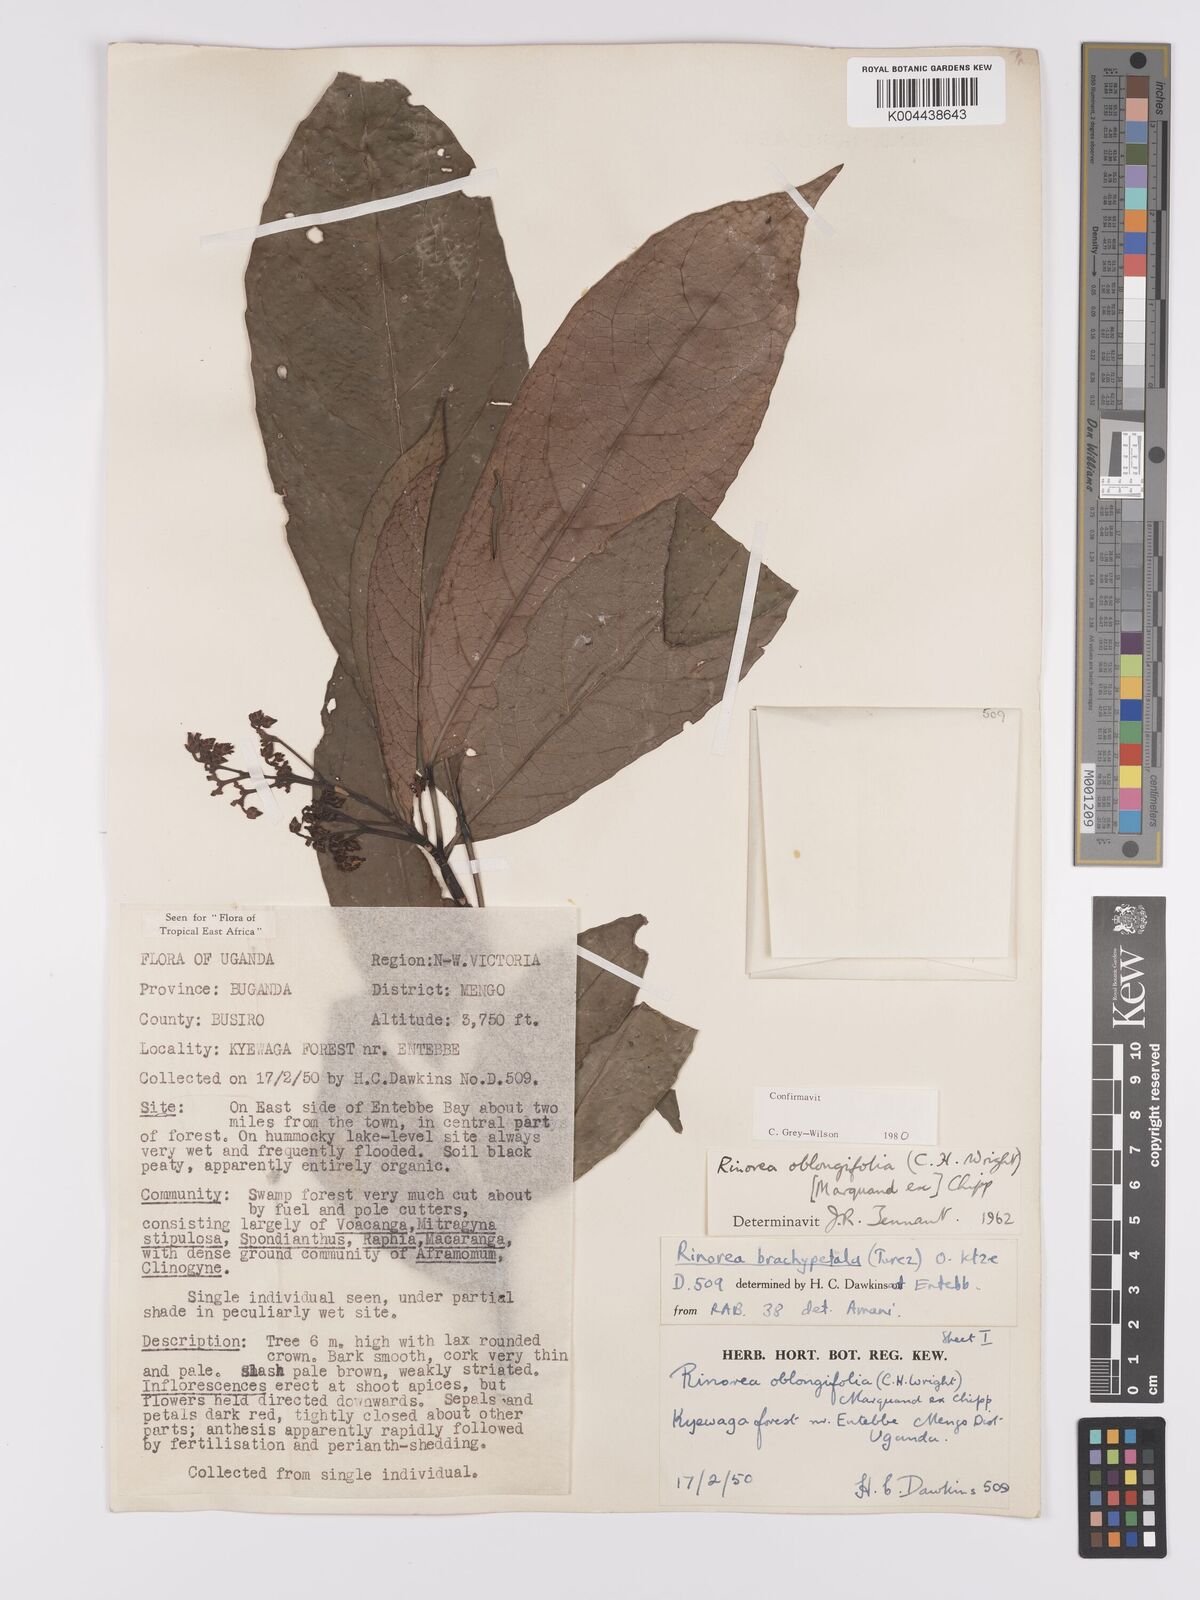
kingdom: Plantae
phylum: Tracheophyta
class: Magnoliopsida
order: Apiales
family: Pittosporaceae
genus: Marianthus
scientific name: Marianthus coeruleopunctatus
